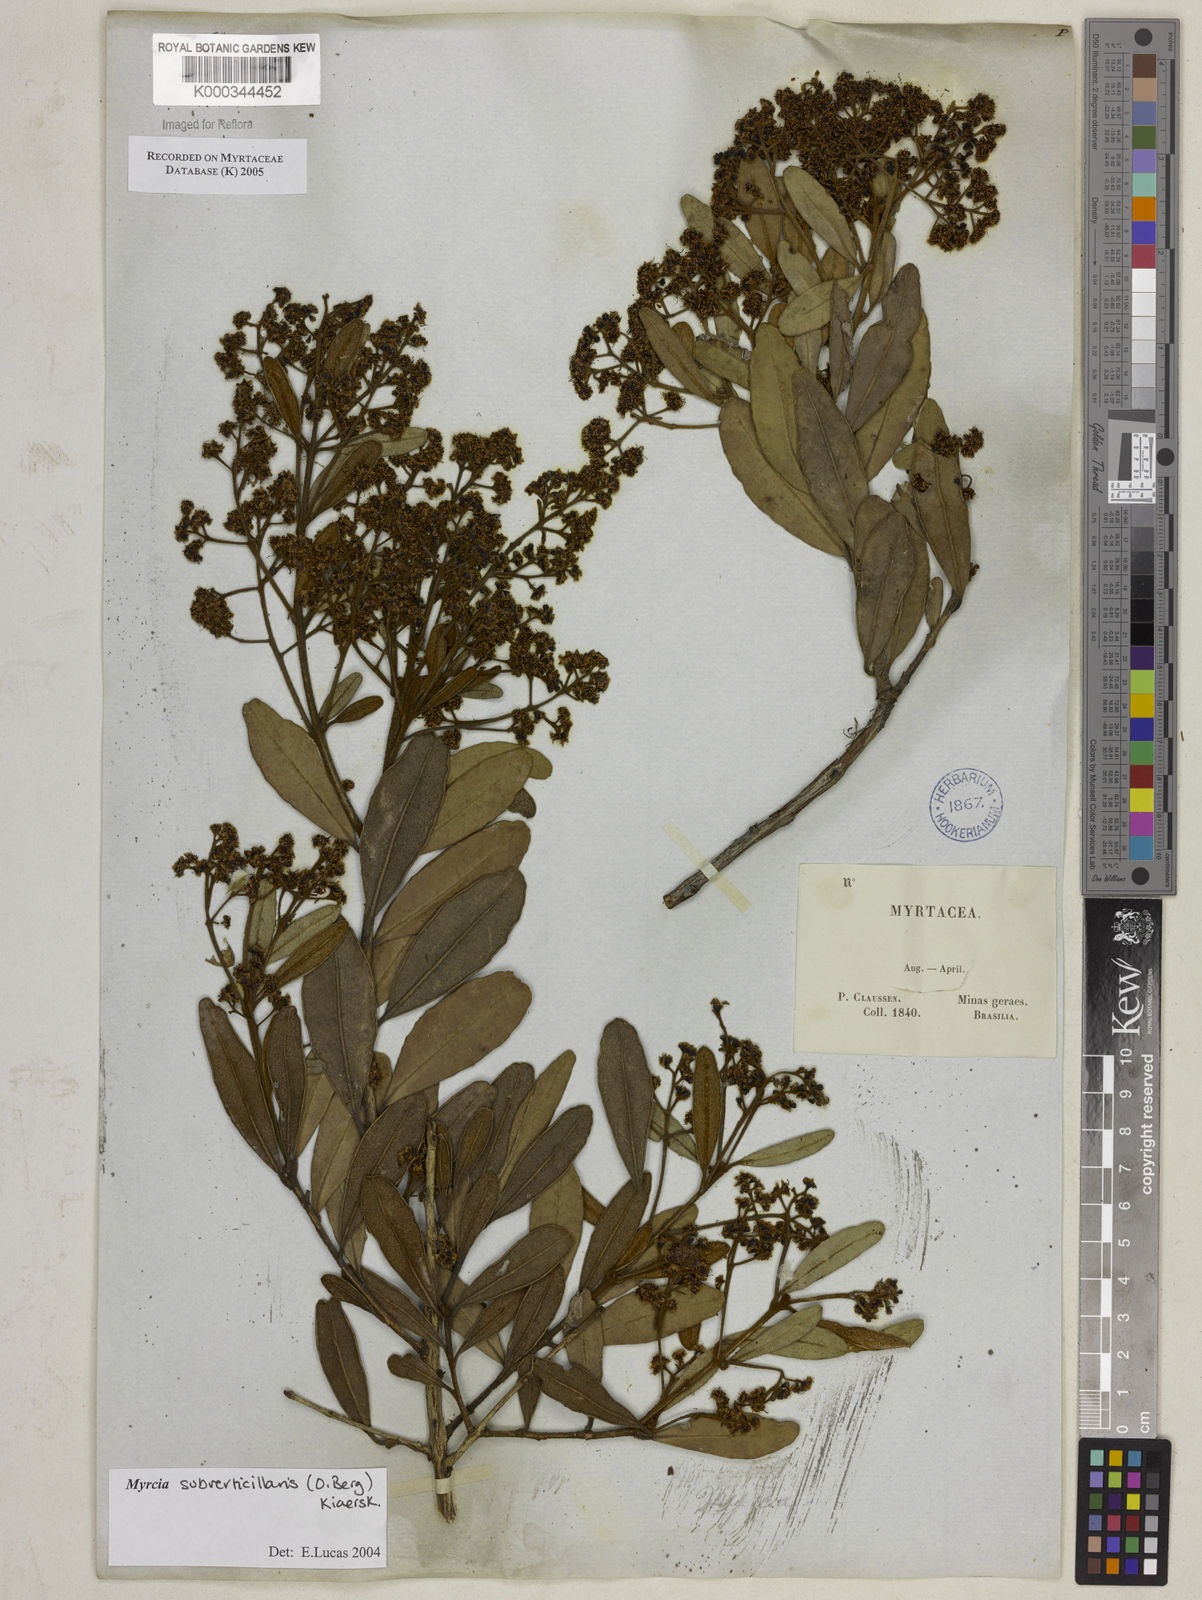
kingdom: Plantae
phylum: Tracheophyta
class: Magnoliopsida
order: Myrtales
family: Myrtaceae
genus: Myrcia
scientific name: Myrcia
